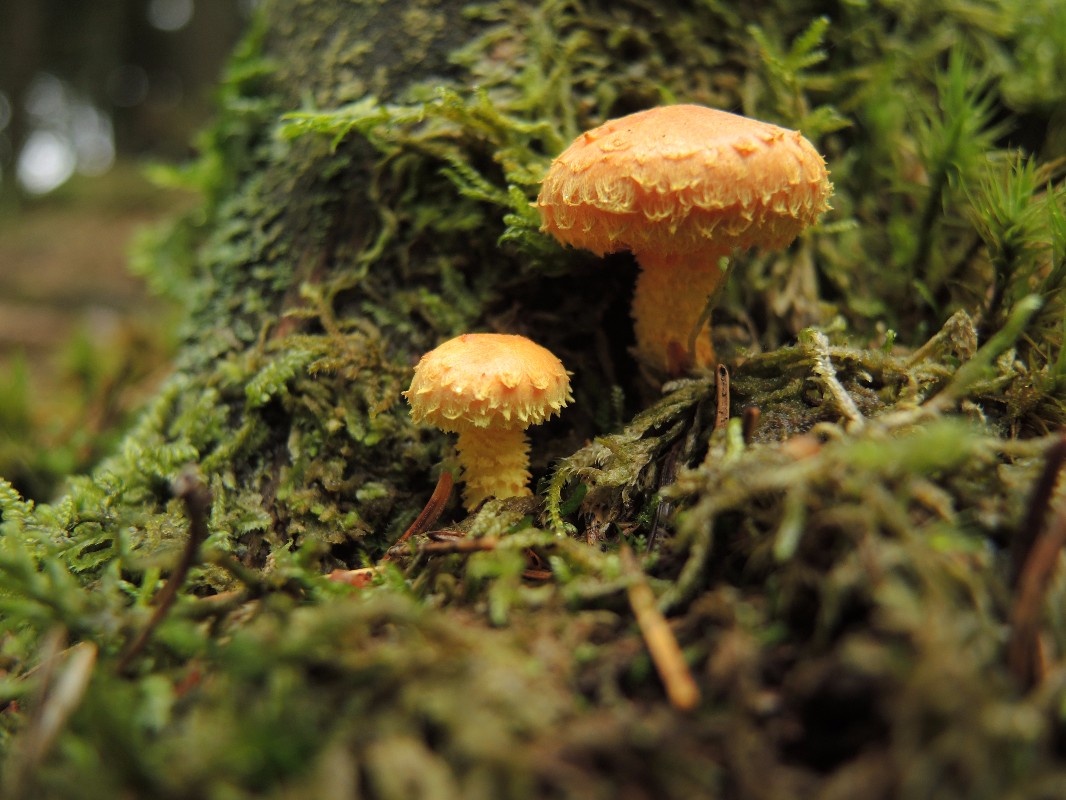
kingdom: Fungi
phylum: Basidiomycota
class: Agaricomycetes
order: Agaricales
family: Strophariaceae
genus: Pholiota
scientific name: Pholiota flammans
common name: flamme-skælhat
